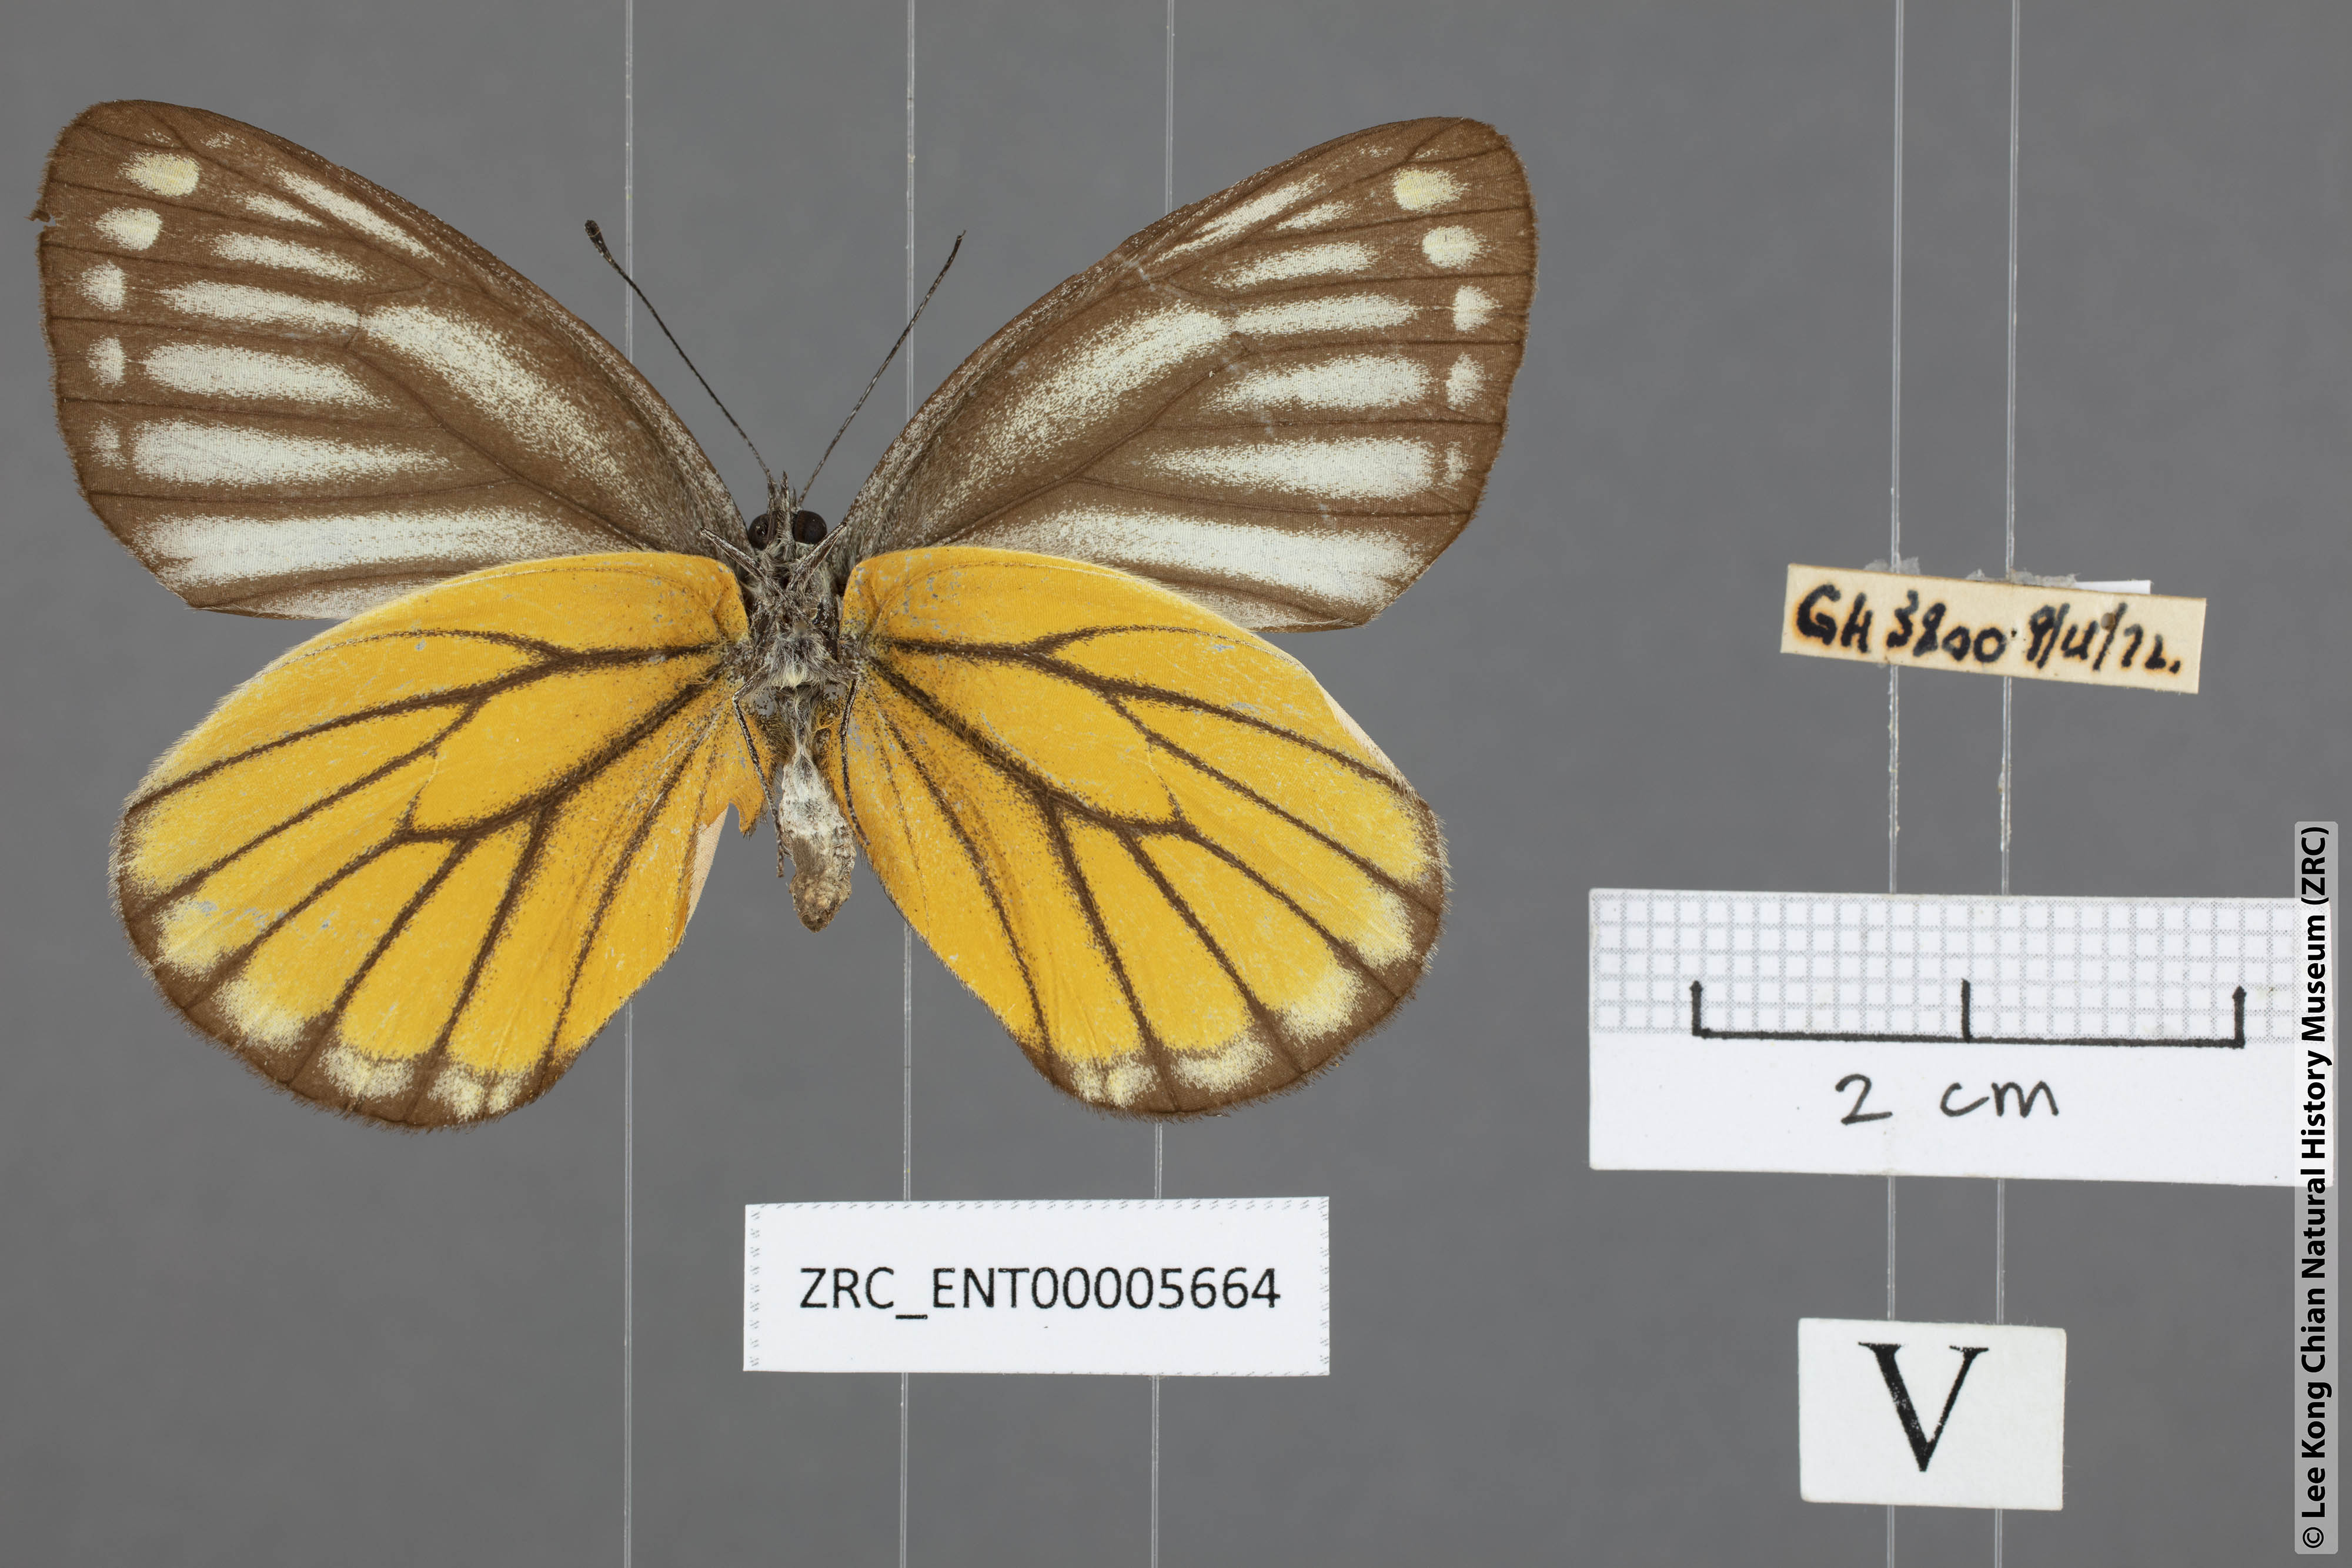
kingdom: Animalia
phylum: Arthropoda
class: Insecta
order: Lepidoptera
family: Pieridae
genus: Delias
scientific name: Delias baracasa
